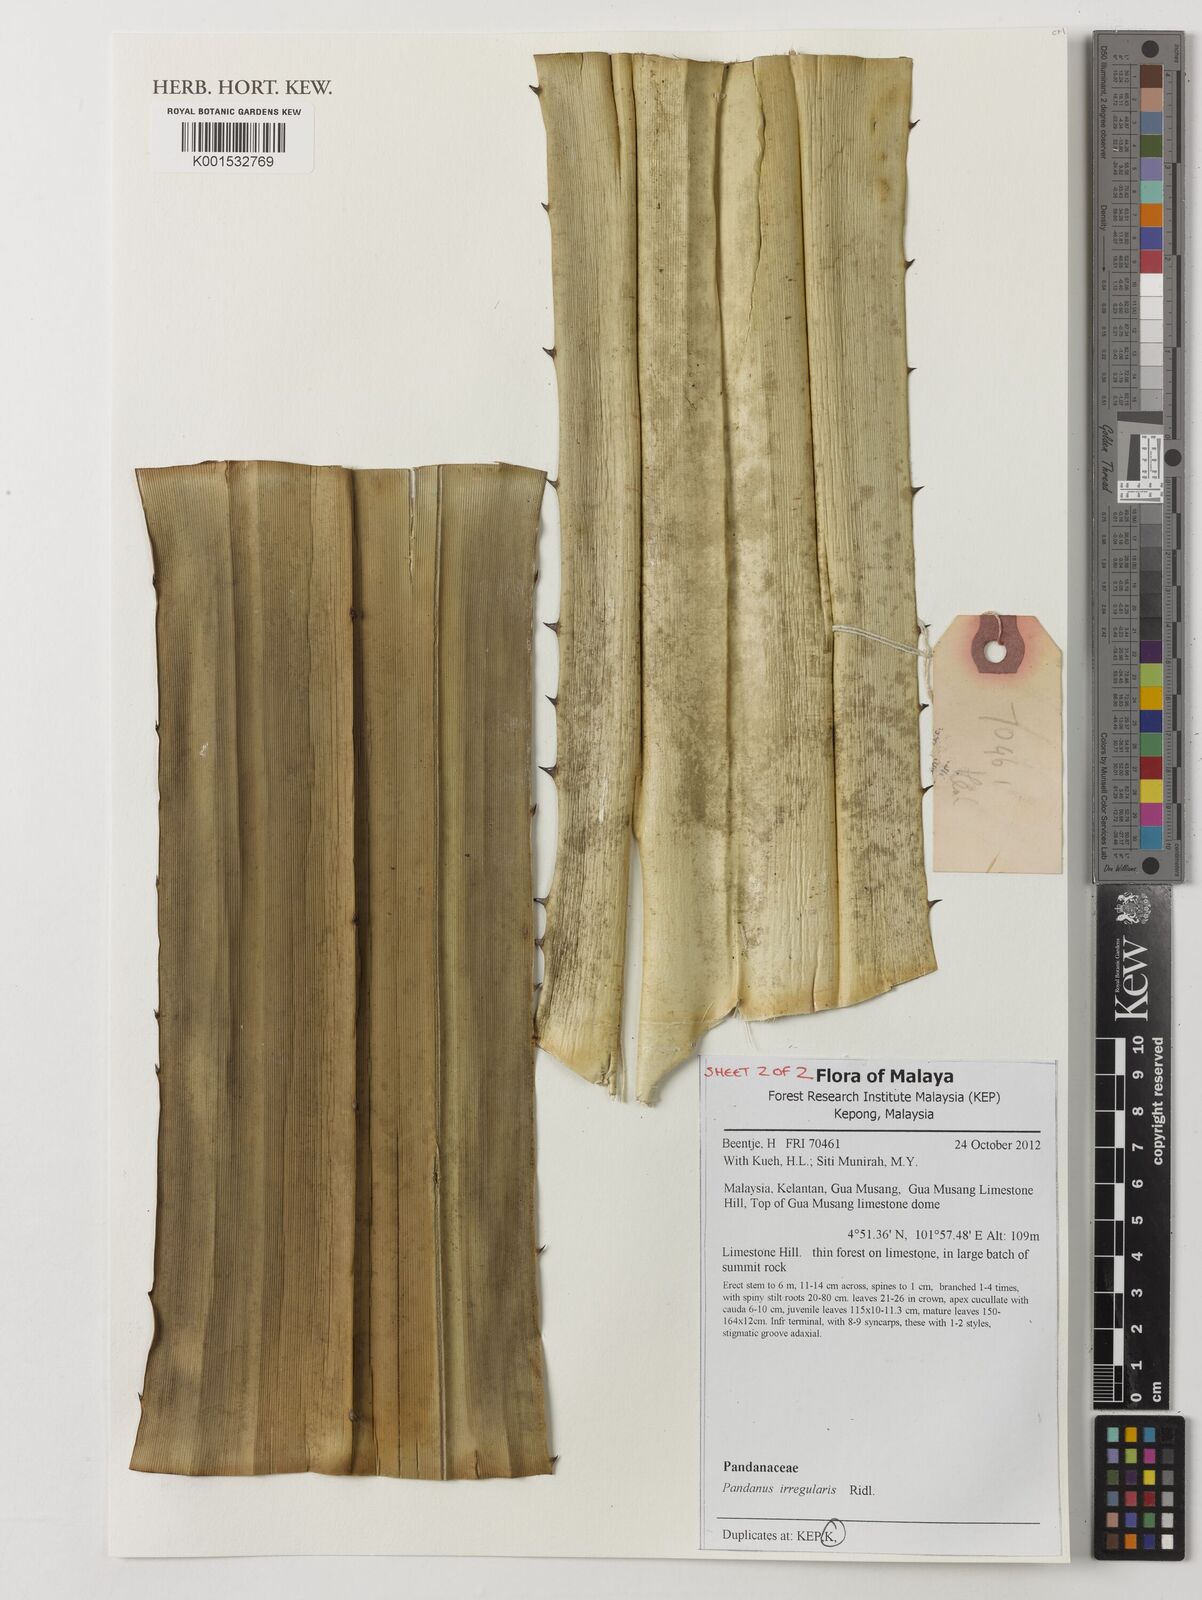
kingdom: Plantae
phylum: Tracheophyta
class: Liliopsida
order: Pandanales
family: Pandanaceae
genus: Pandanus
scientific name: Pandanus irregularis
